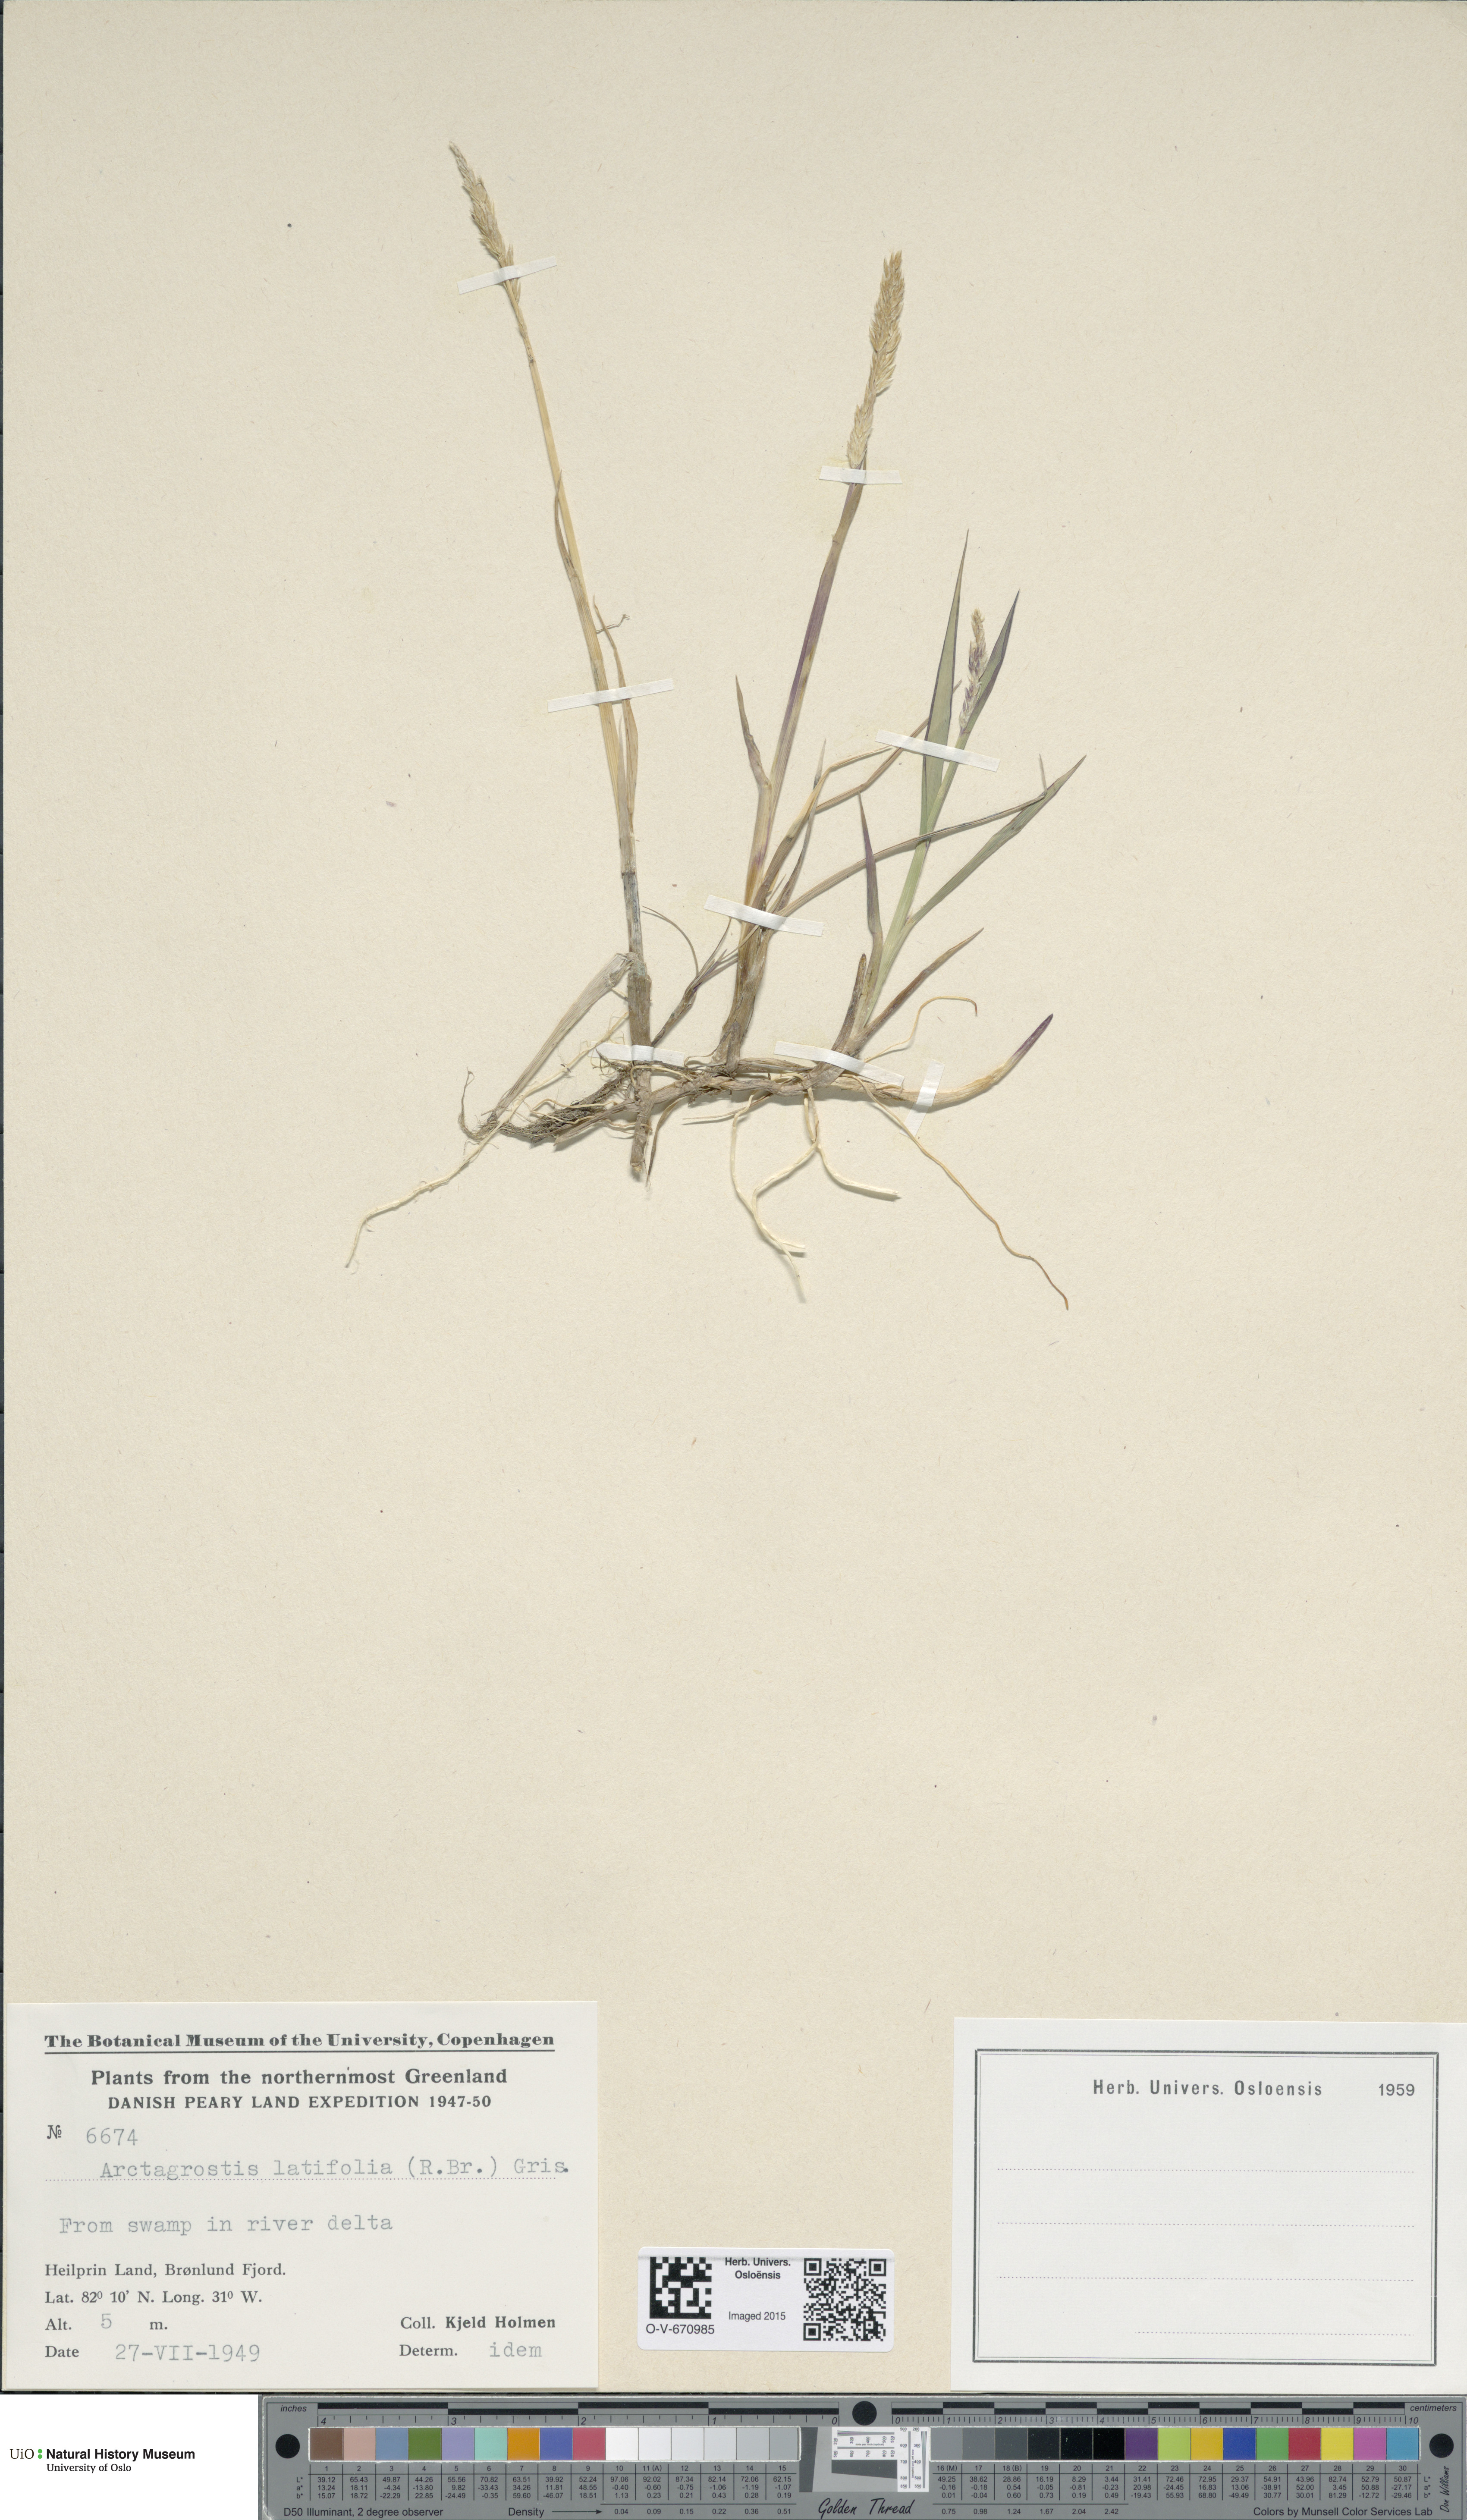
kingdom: Plantae
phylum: Tracheophyta
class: Liliopsida
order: Poales
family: Poaceae
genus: Arctagrostis
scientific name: Arctagrostis latifolia
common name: Arctic grass
